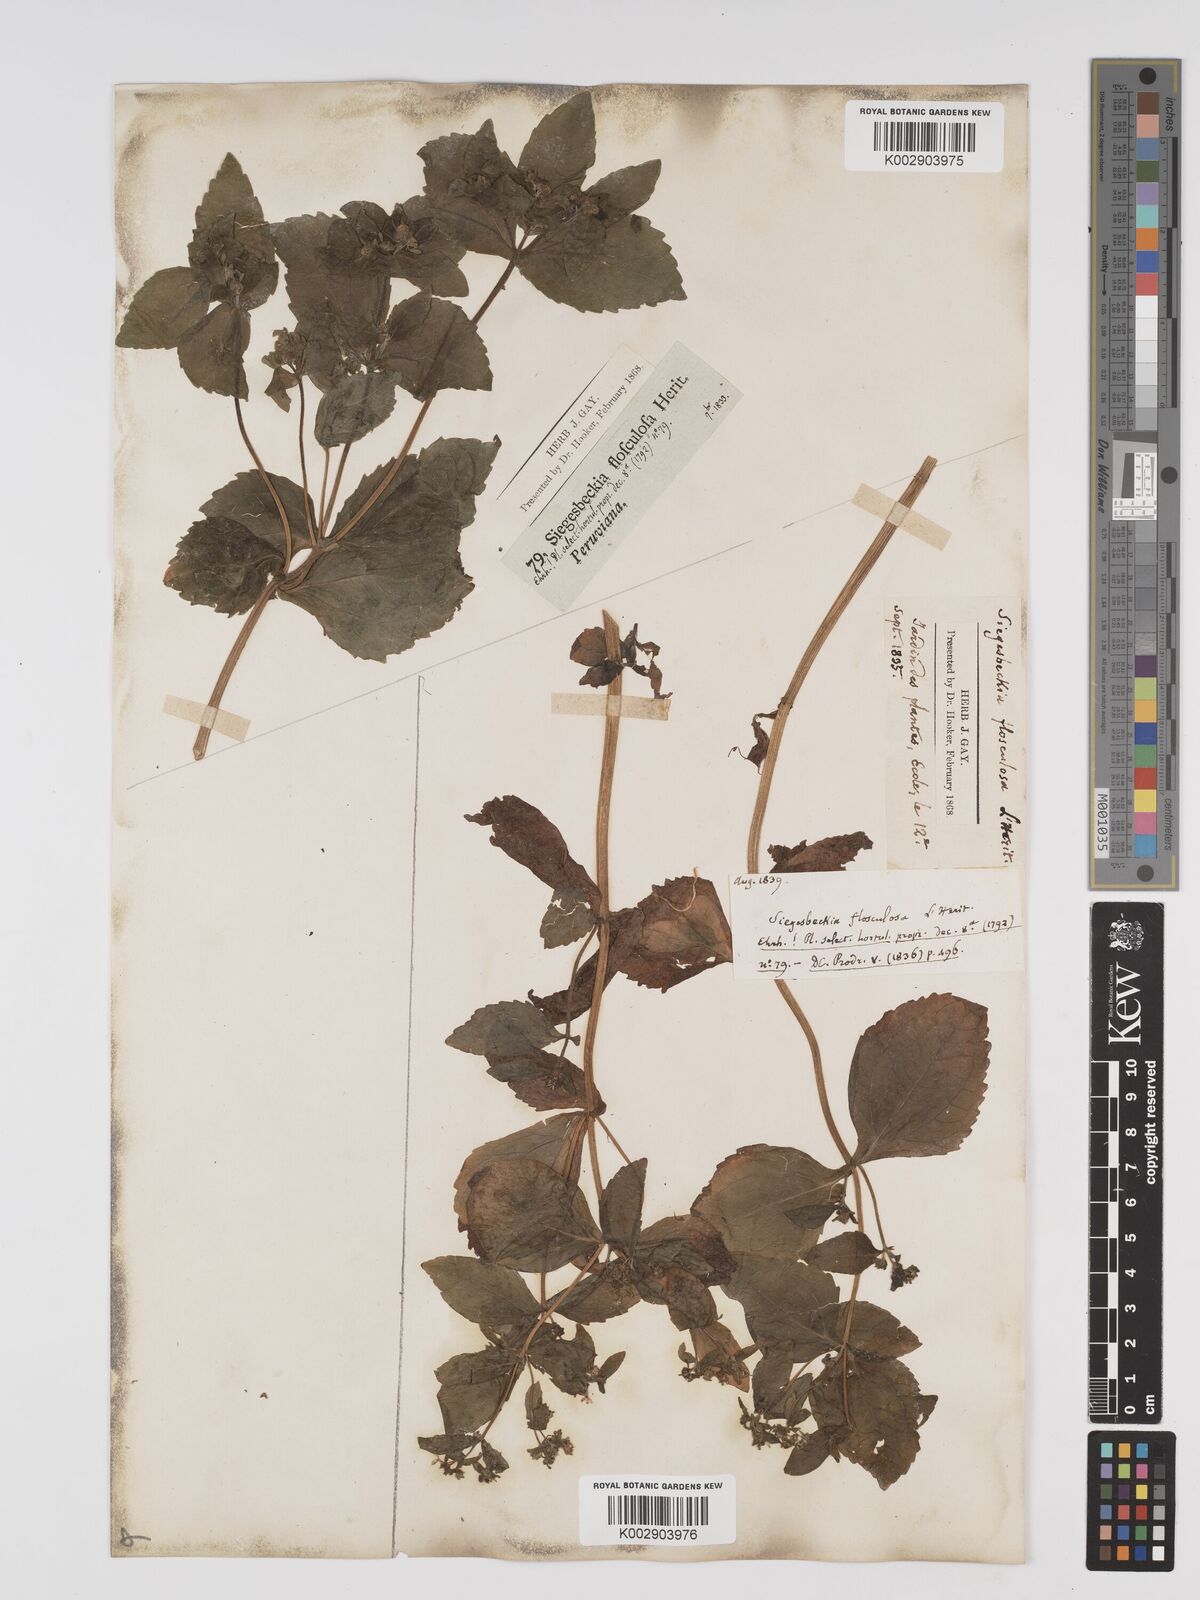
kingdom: Plantae
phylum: Tracheophyta
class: Magnoliopsida
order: Asterales
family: Asteraceae
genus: Sigesbeckia
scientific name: Sigesbeckia flosculosa
